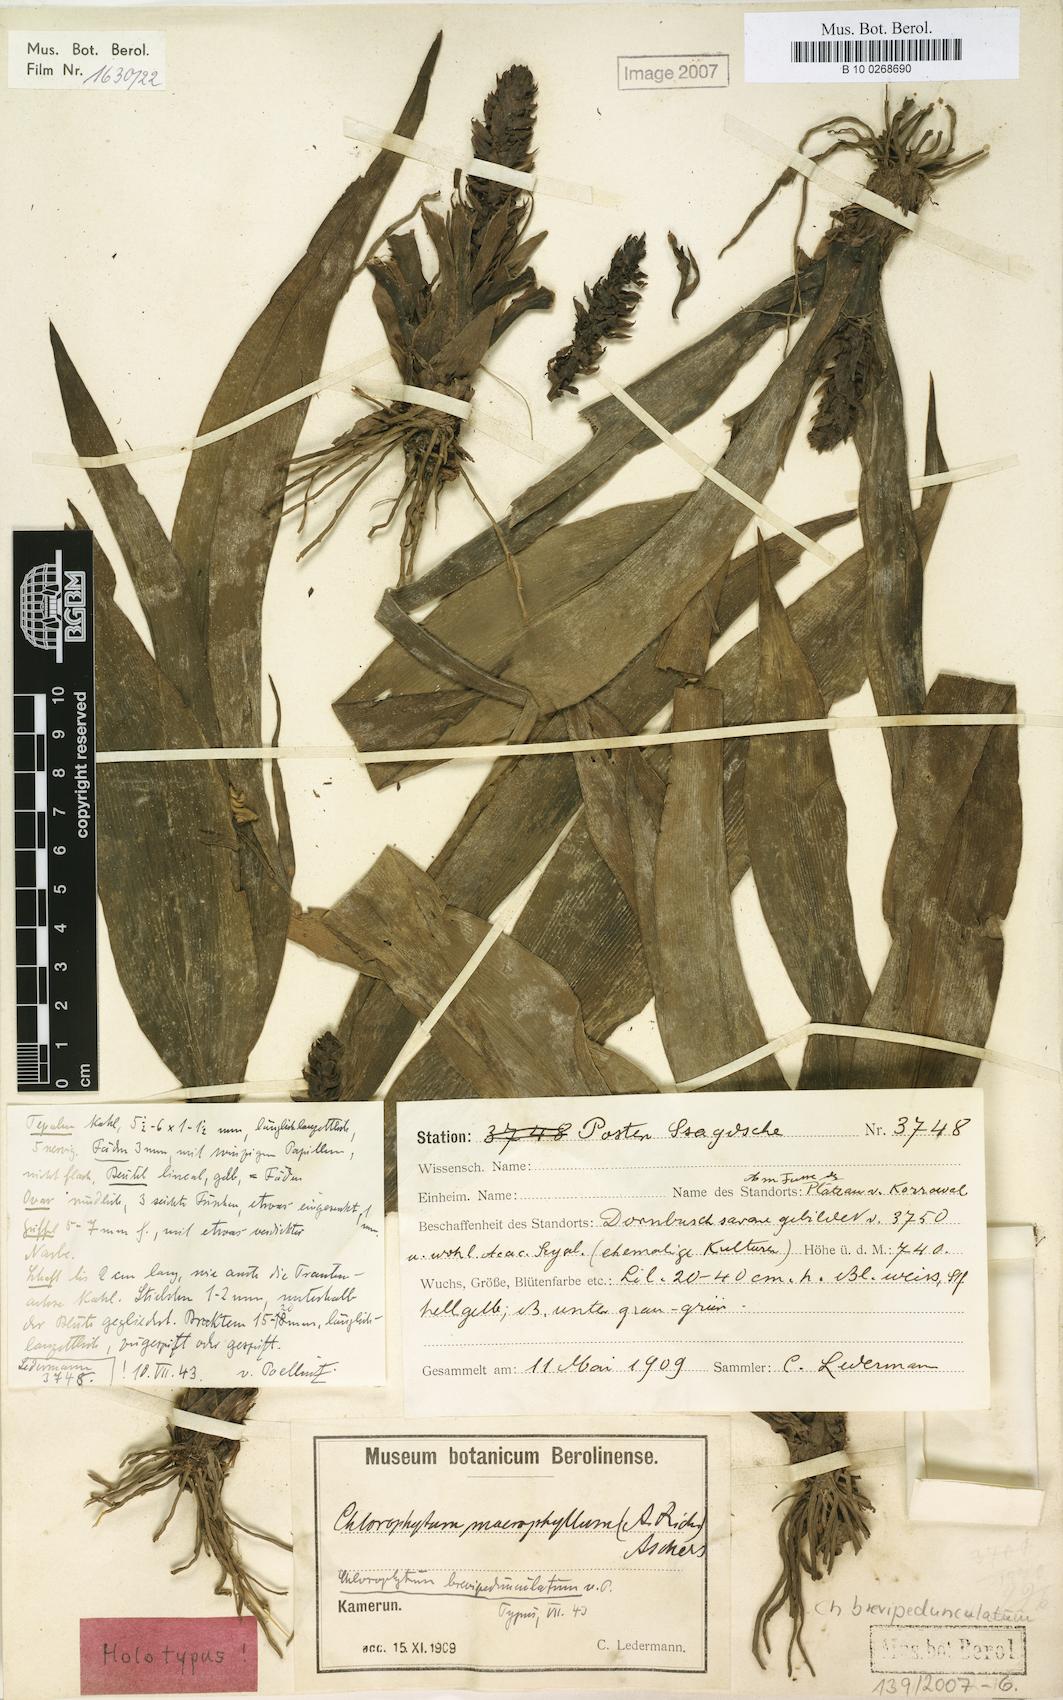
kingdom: Plantae
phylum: Tracheophyta
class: Liliopsida
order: Asparagales
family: Asparagaceae
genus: Chlorophytum
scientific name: Chlorophytum stenopetalum
